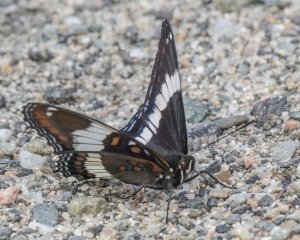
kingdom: Animalia
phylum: Arthropoda
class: Insecta
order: Lepidoptera
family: Nymphalidae
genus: Limenitis
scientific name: Limenitis arthemis
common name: Red-spotted Admiral
